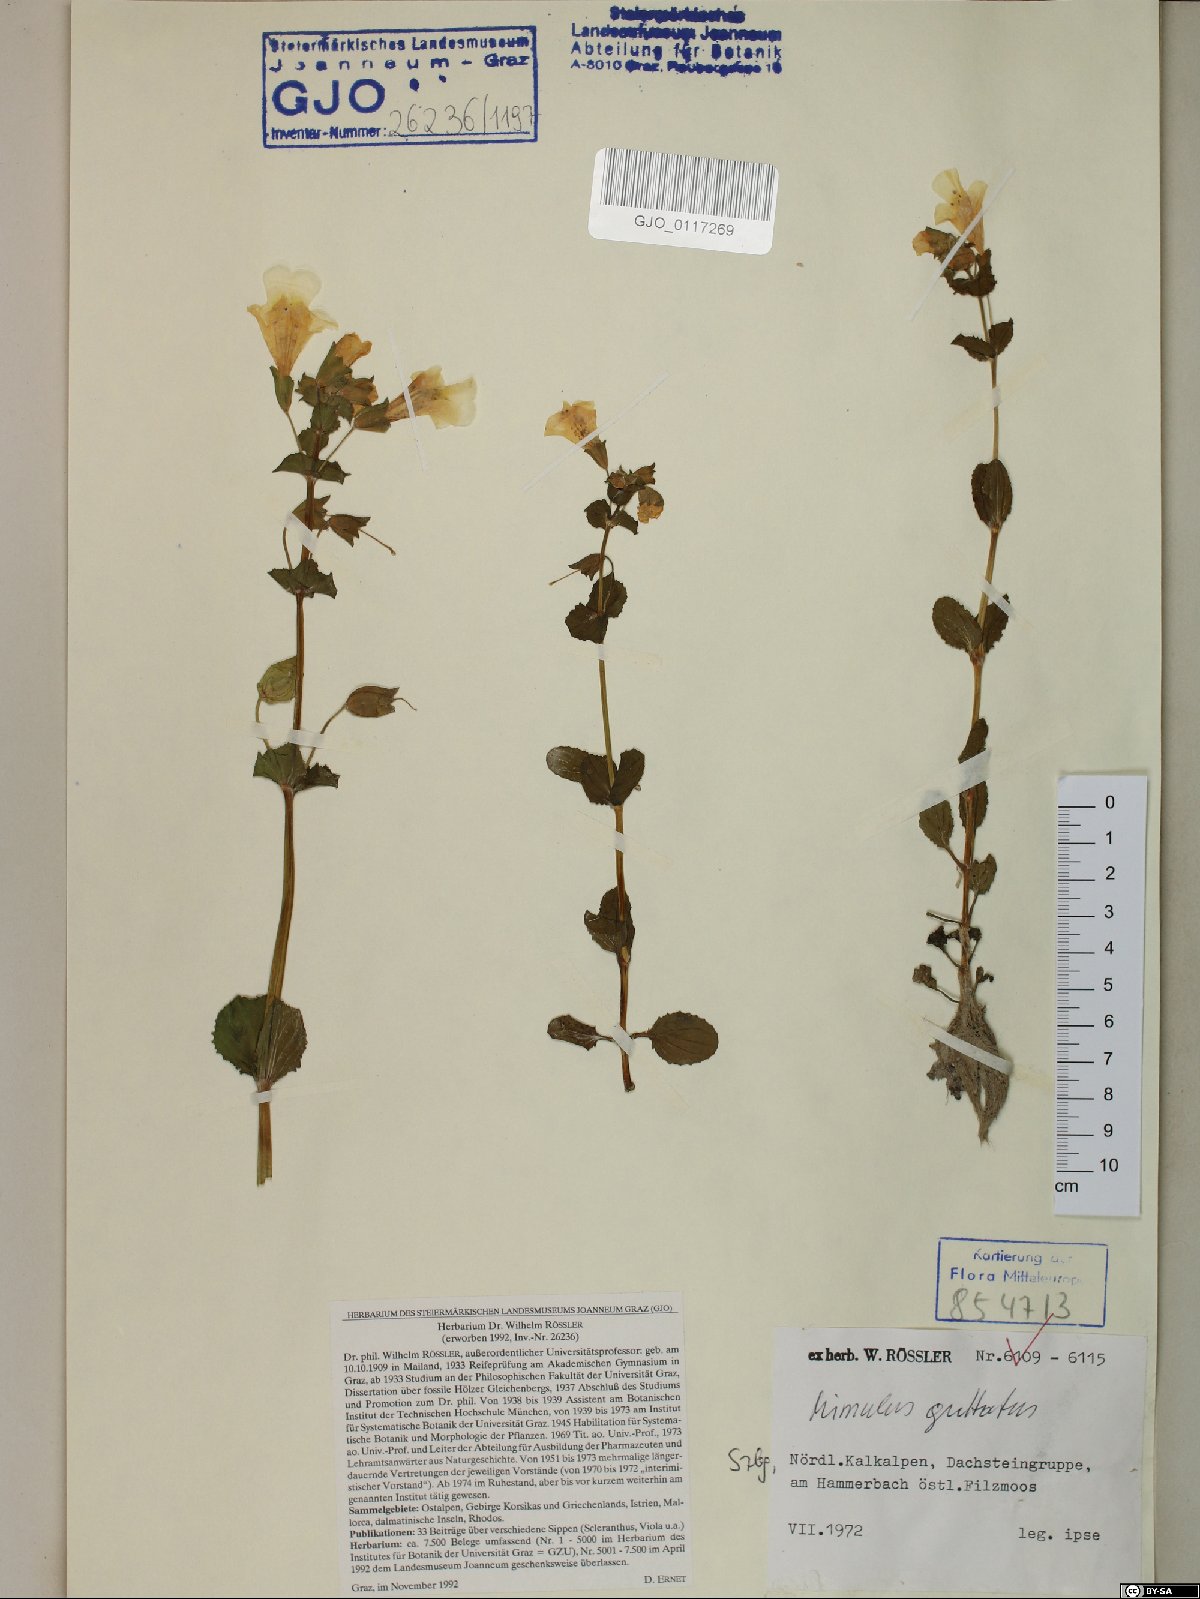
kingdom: Plantae
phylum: Tracheophyta
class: Magnoliopsida
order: Lamiales
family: Phrymaceae
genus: Erythranthe
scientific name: Erythranthe guttata
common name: Monkeyflower
